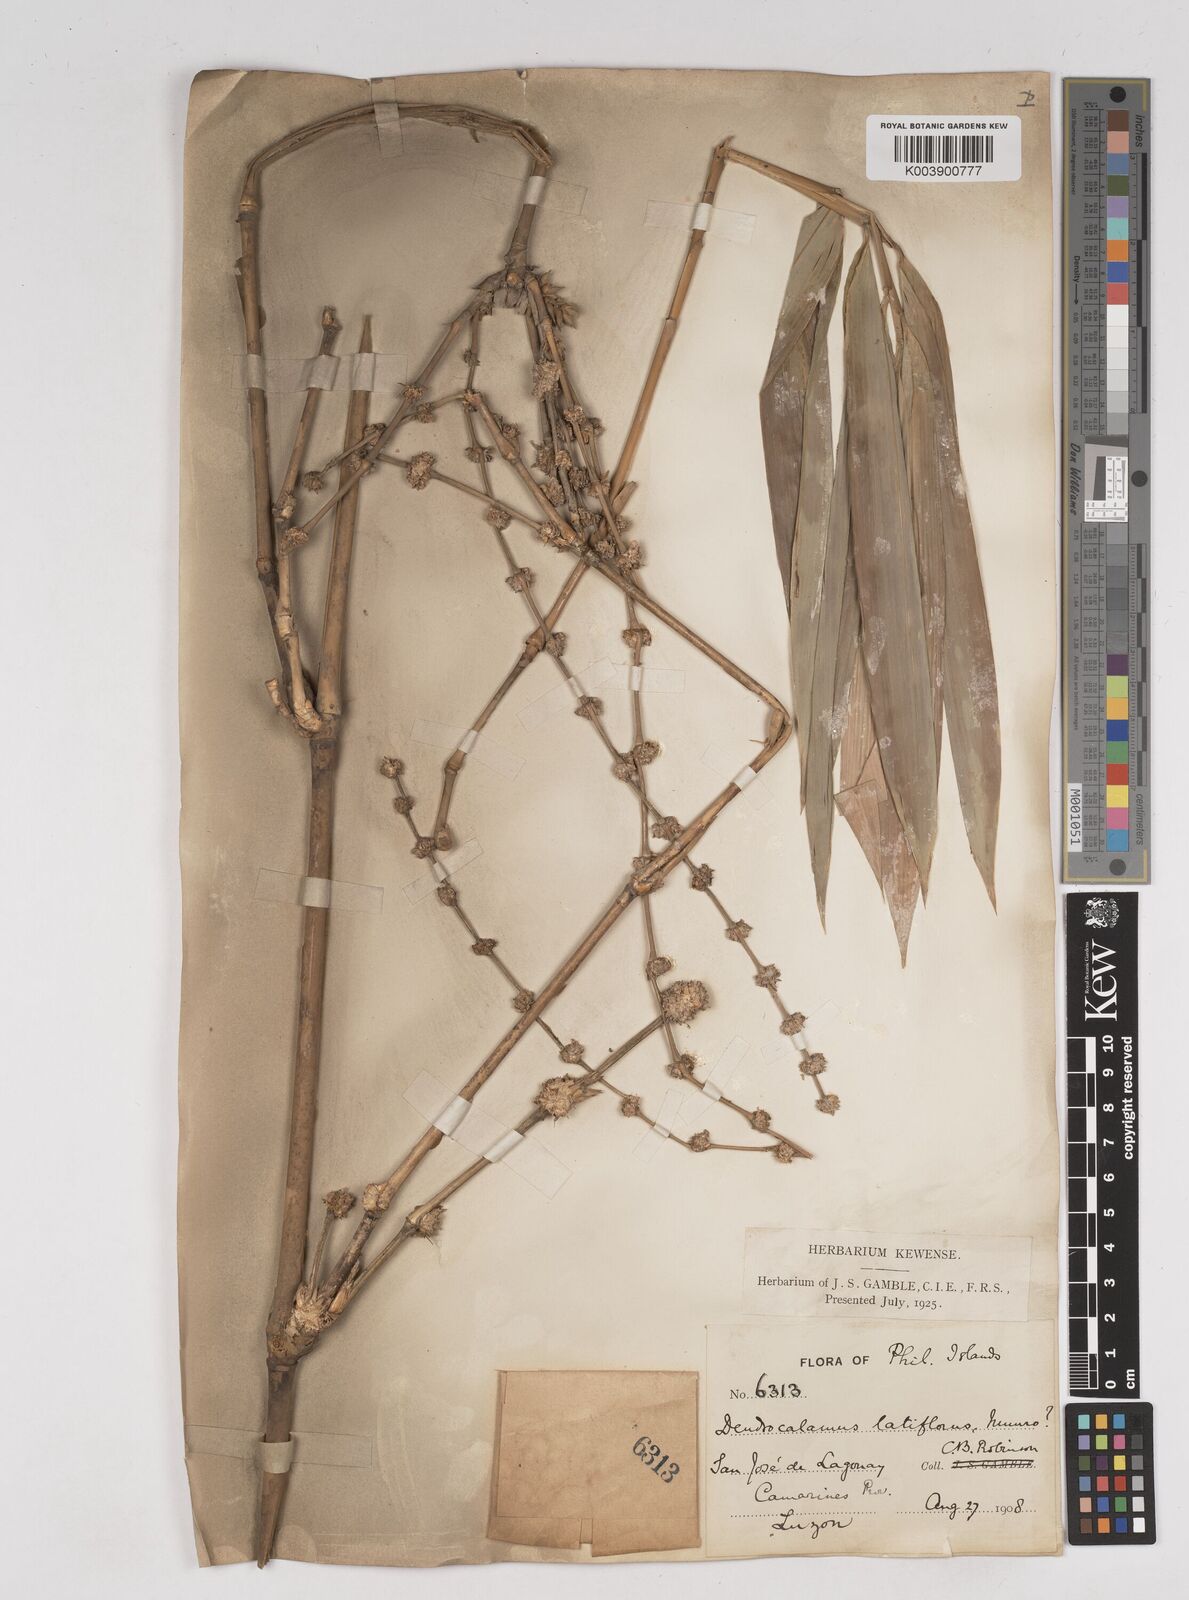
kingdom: Plantae
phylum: Tracheophyta
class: Liliopsida
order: Poales
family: Poaceae
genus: Gigantochloa
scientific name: Gigantochloa levis
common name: Smooth-shoot gigantochloa
